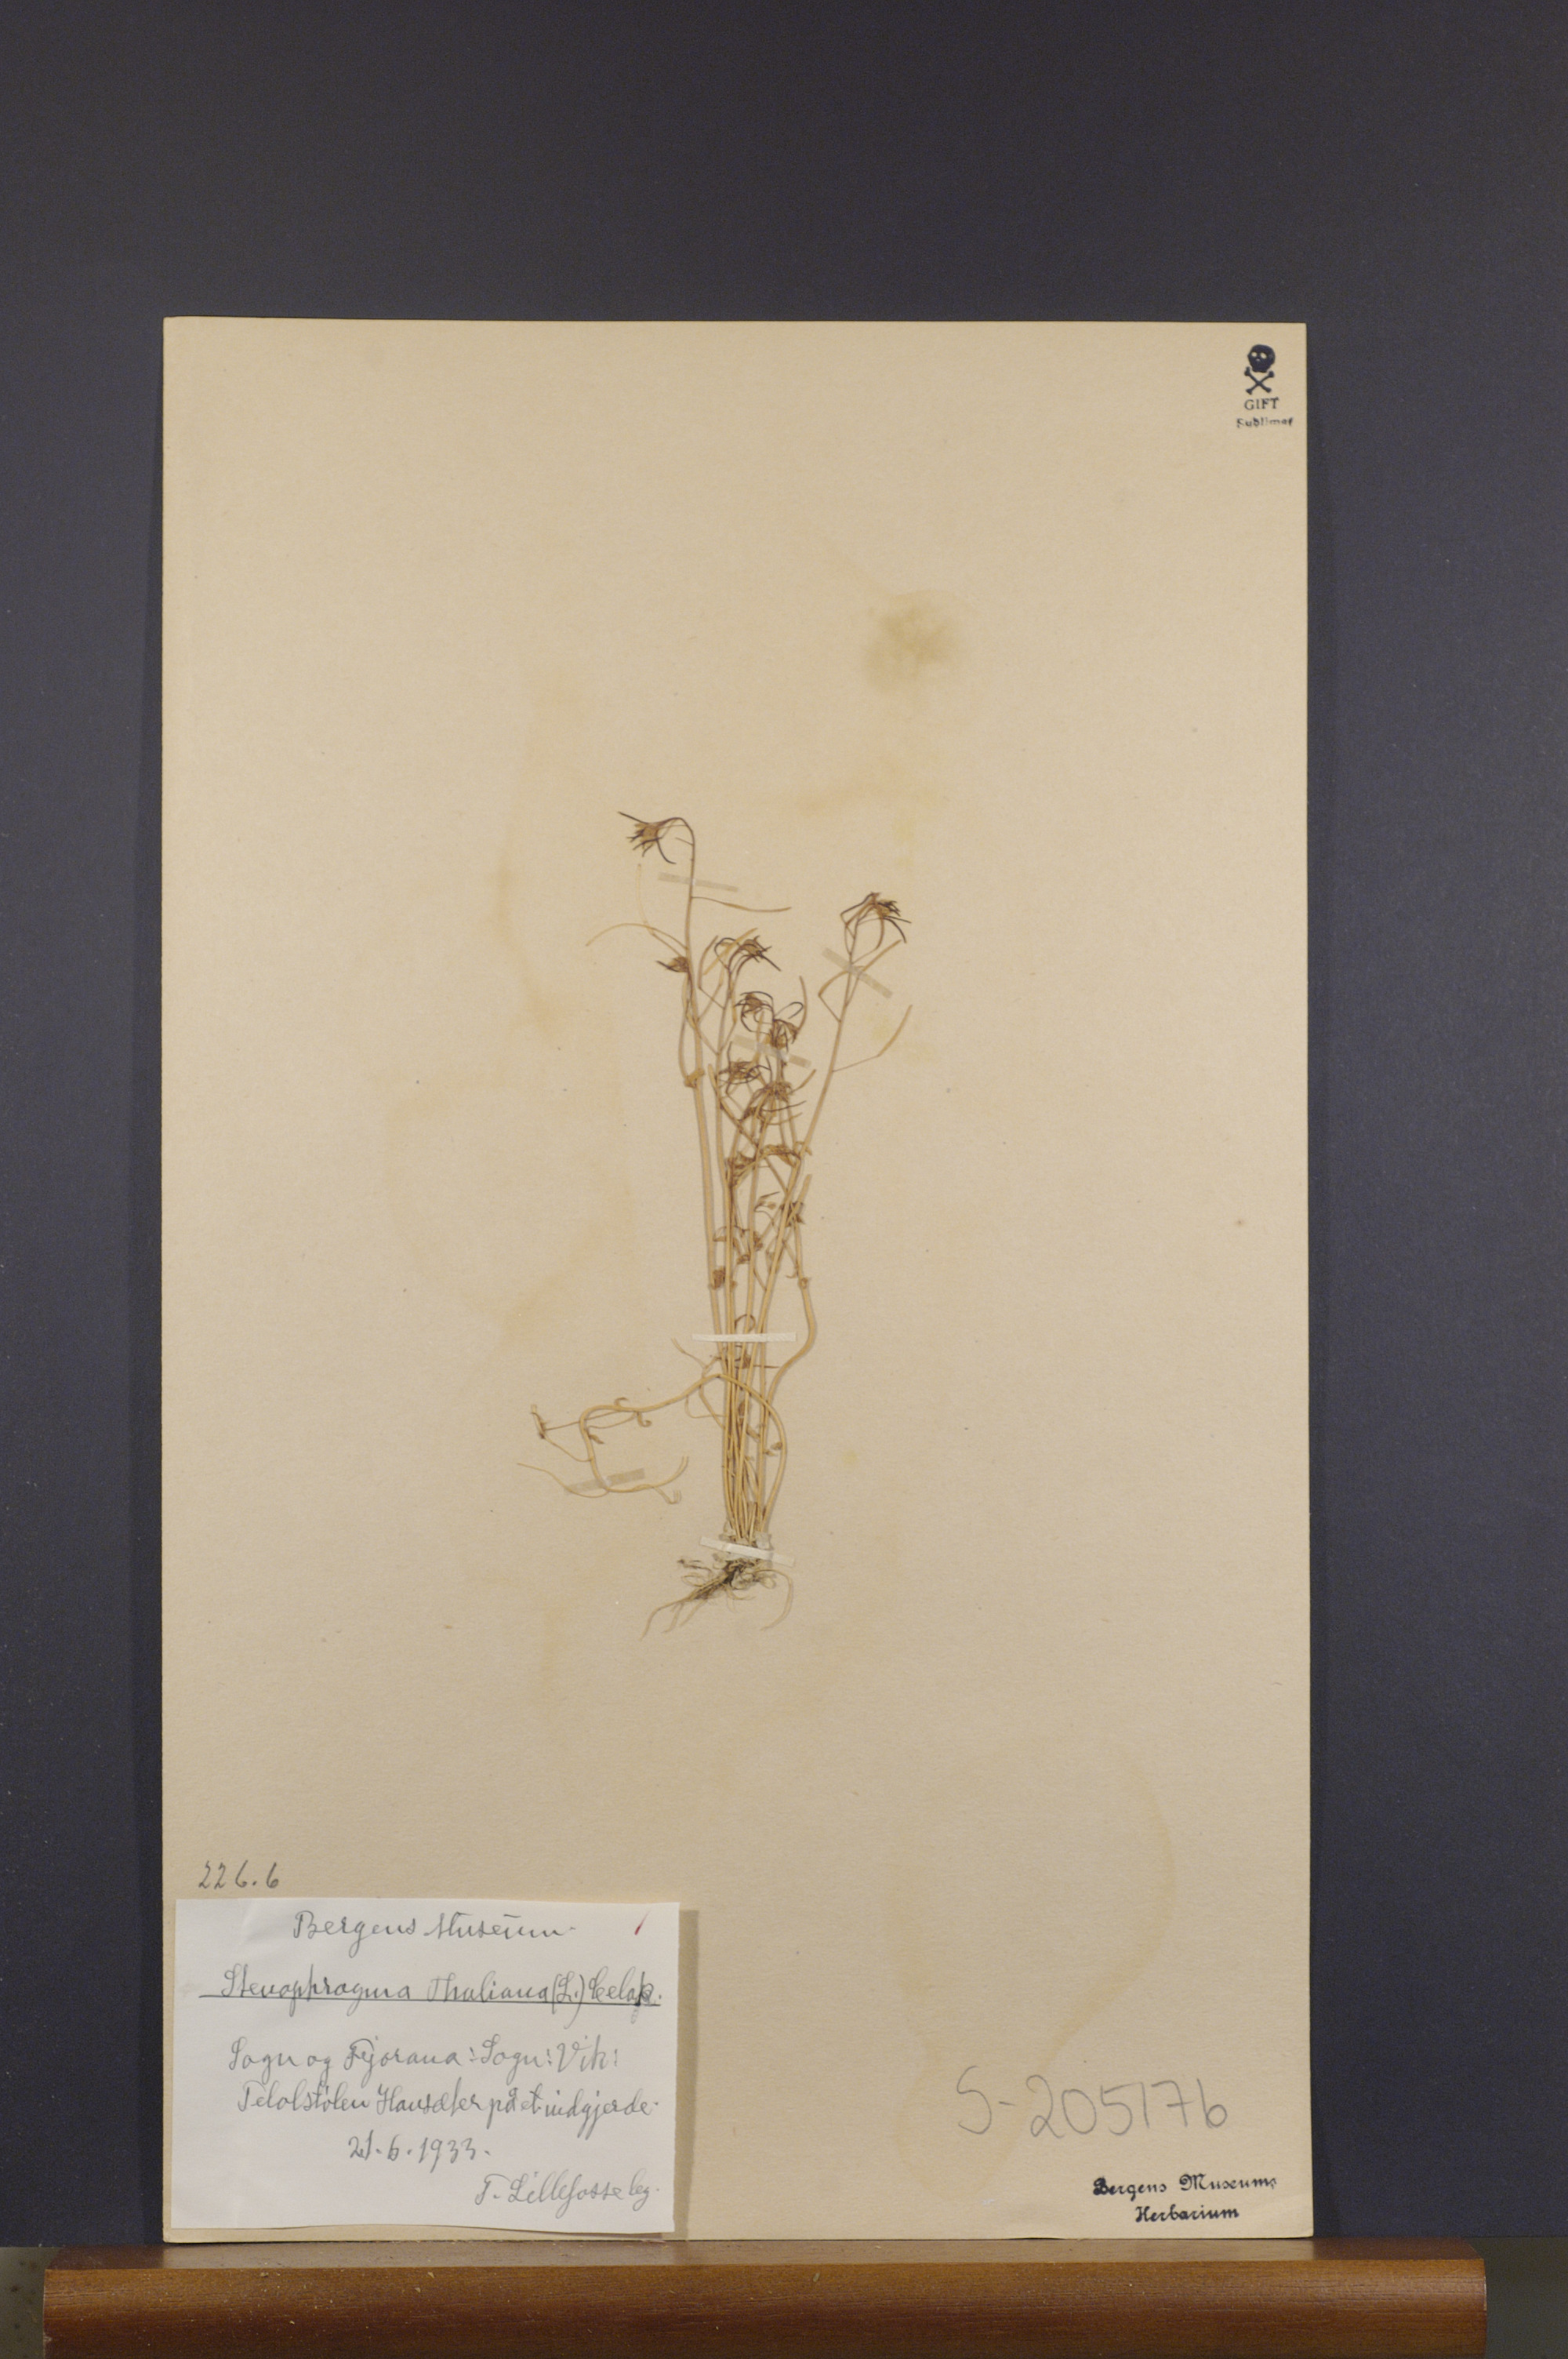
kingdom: Plantae
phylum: Tracheophyta
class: Magnoliopsida
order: Brassicales
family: Brassicaceae
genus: Arabidopsis
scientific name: Arabidopsis thaliana
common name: Thale cress
